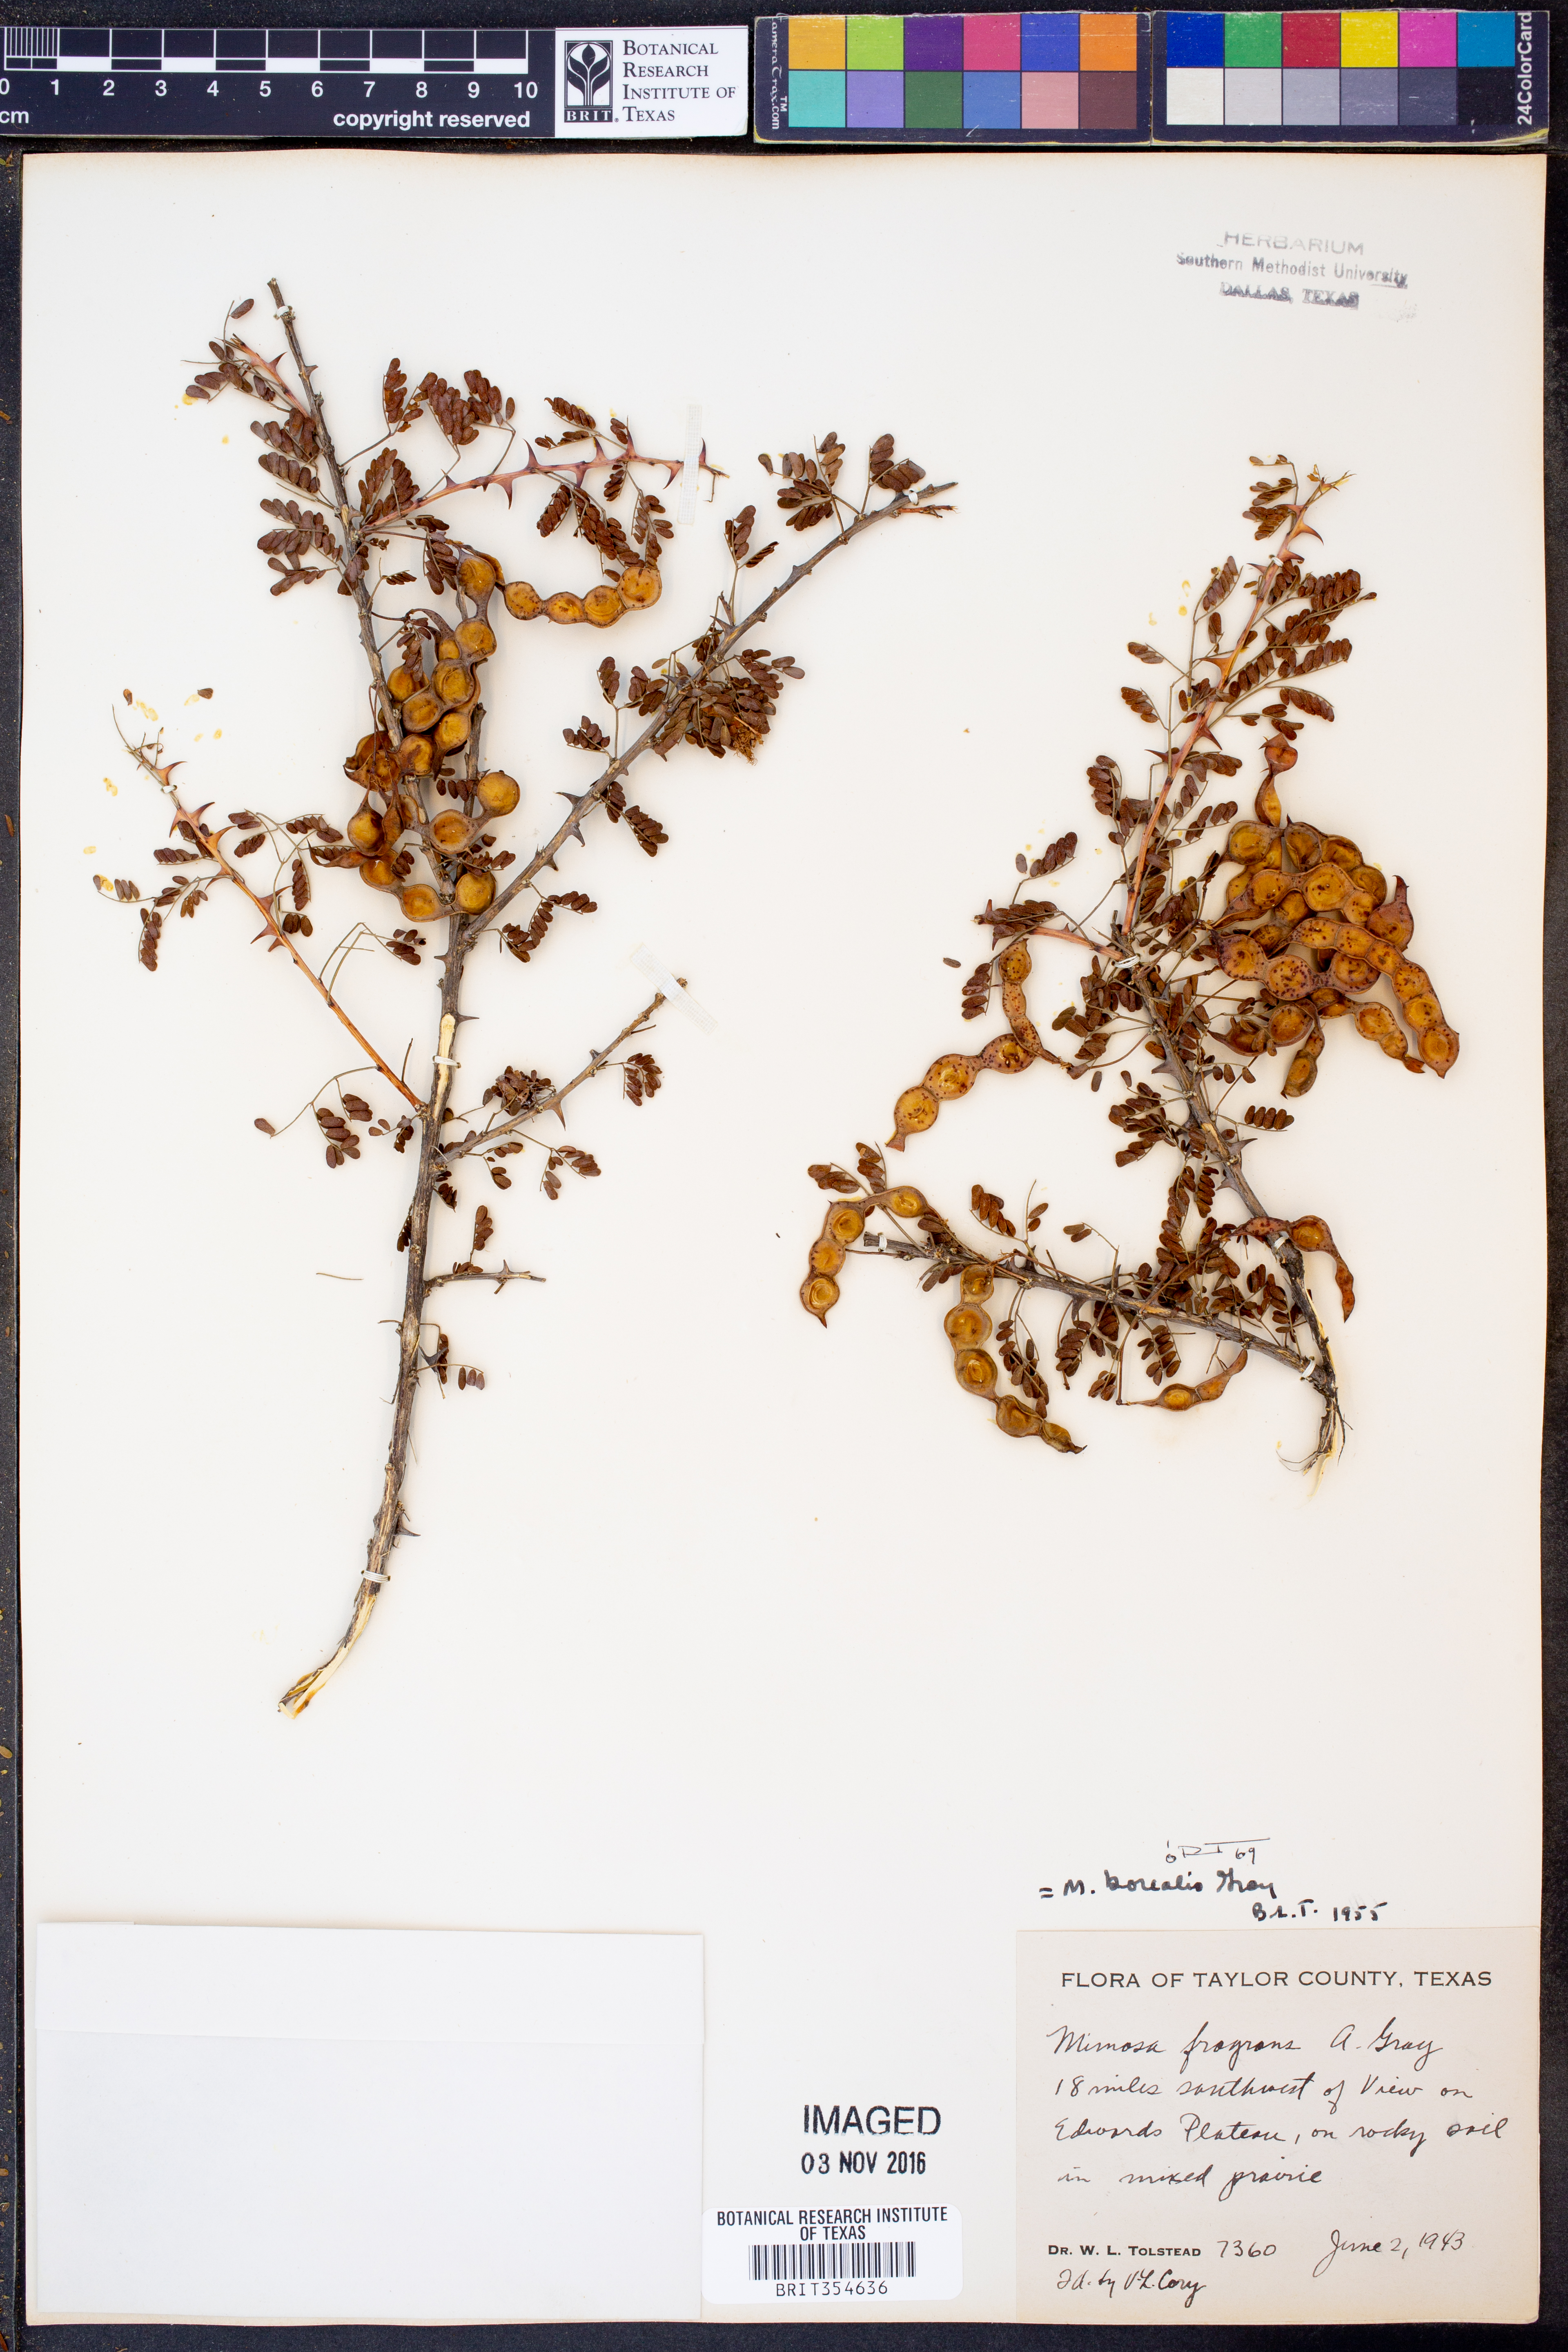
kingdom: Plantae
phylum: Tracheophyta
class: Magnoliopsida
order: Fabales
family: Fabaceae
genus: Mimosa
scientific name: Mimosa borealis
